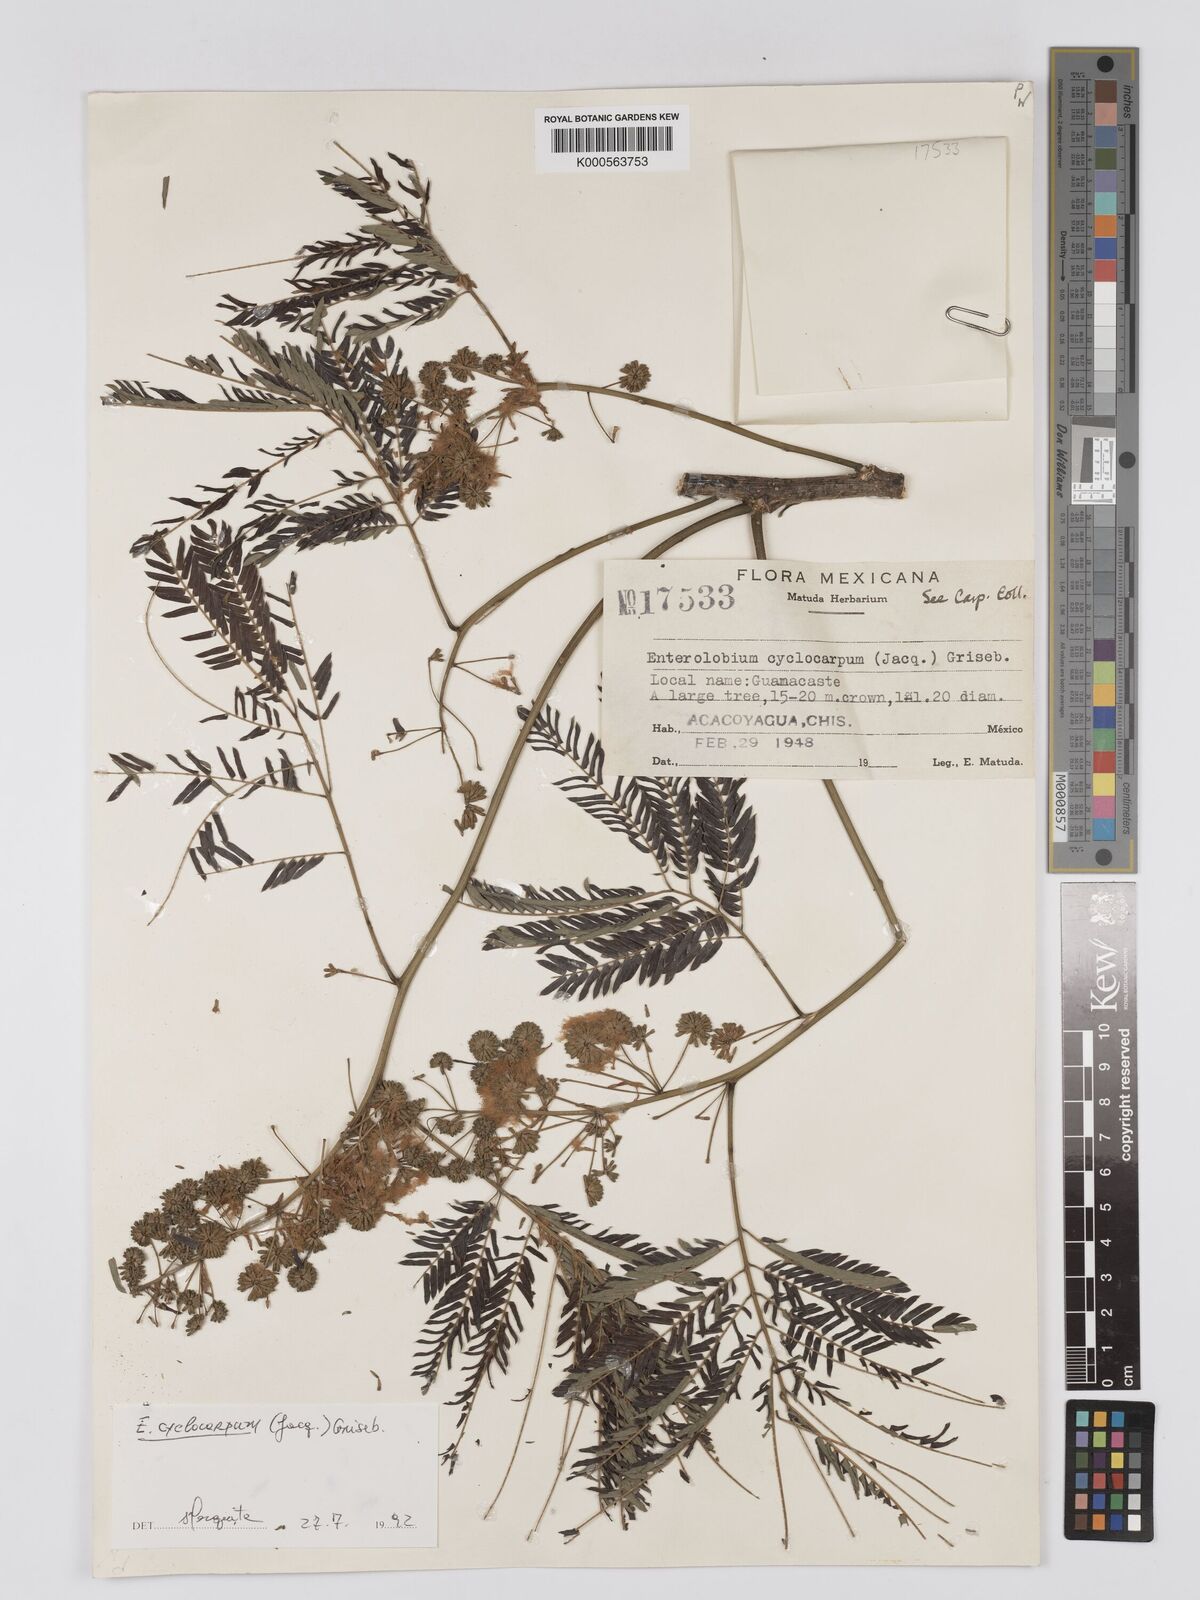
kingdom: Plantae
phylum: Tracheophyta
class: Magnoliopsida
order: Fabales
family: Fabaceae
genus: Enterolobium
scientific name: Enterolobium cyclocarpum
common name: Ear tree
